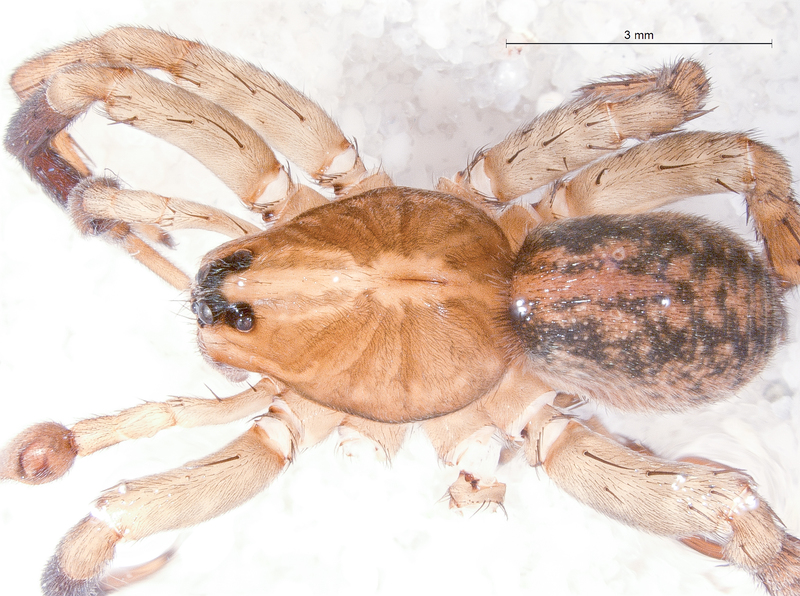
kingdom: Animalia
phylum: Arthropoda
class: Arachnida
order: Araneae
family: Lycosidae
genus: Trochosa
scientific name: Trochosa terricola
